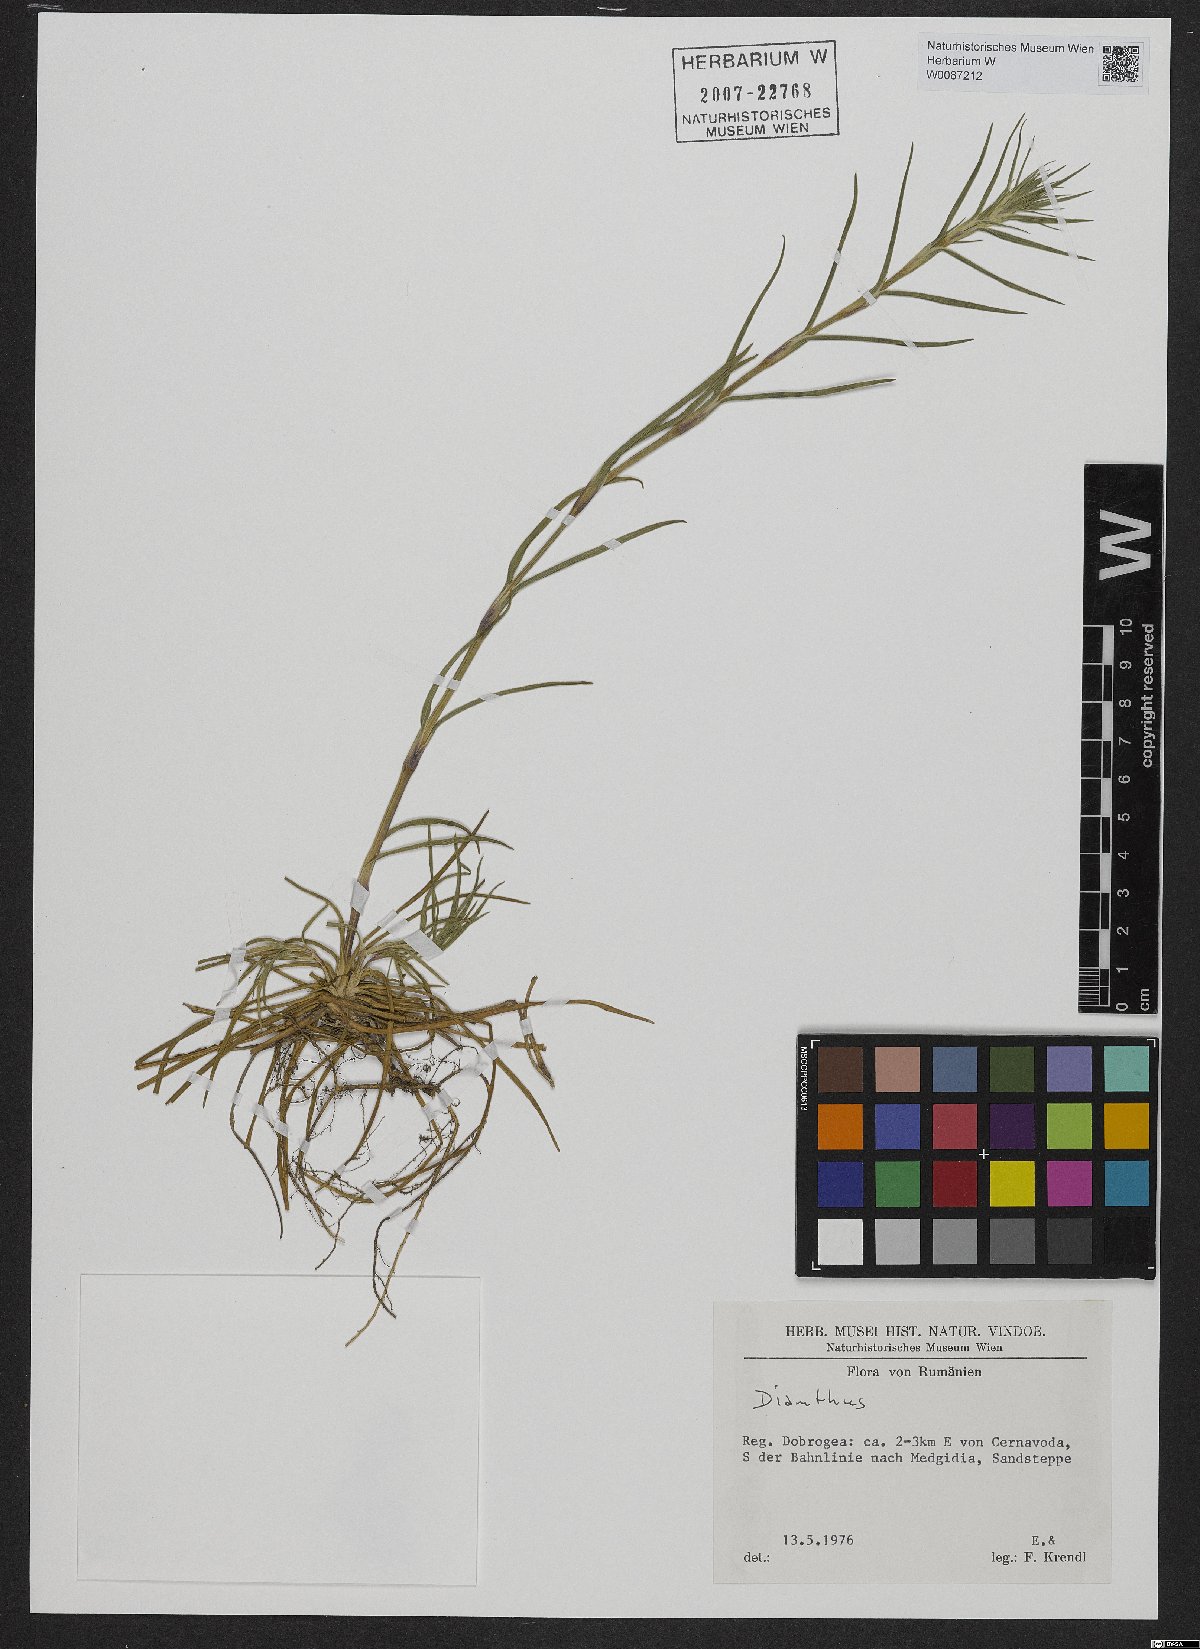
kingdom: Plantae
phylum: Tracheophyta
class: Magnoliopsida
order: Caryophyllales
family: Caryophyllaceae
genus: Dianthus
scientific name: Dianthus
